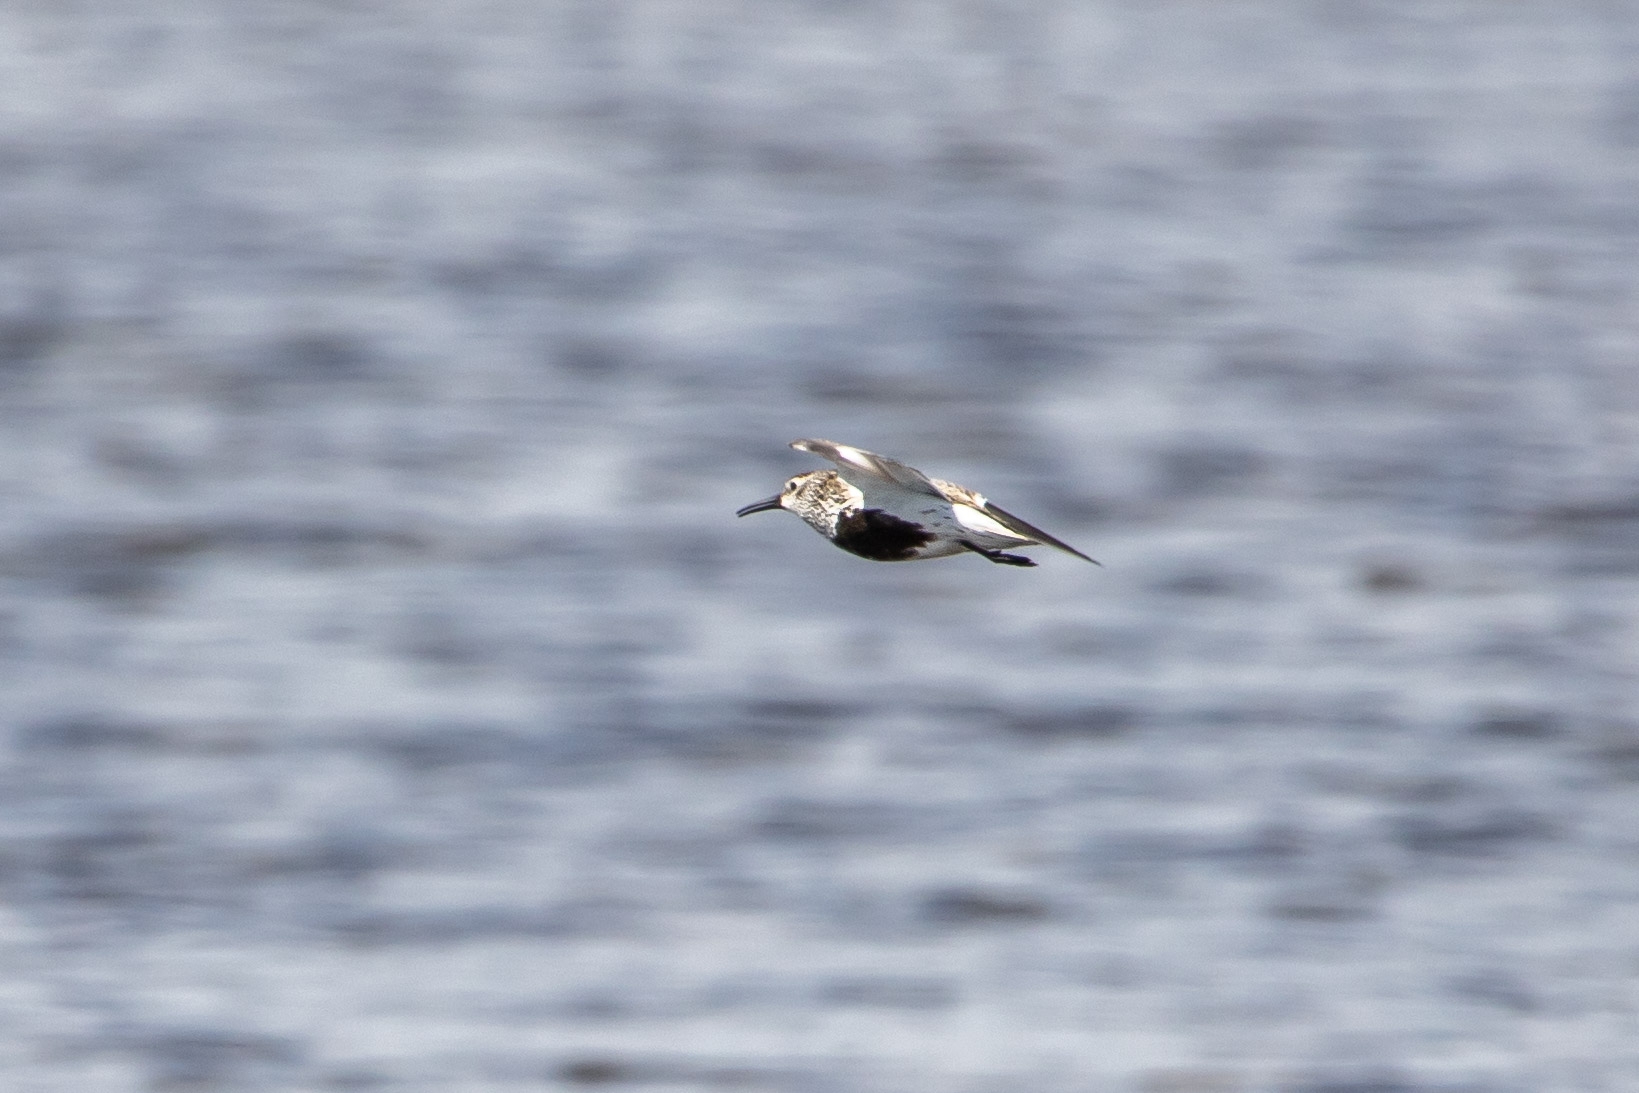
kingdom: Animalia
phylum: Chordata
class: Aves
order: Charadriiformes
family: Scolopacidae
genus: Calidris
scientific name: Calidris alpina
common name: Almindelig ryle
